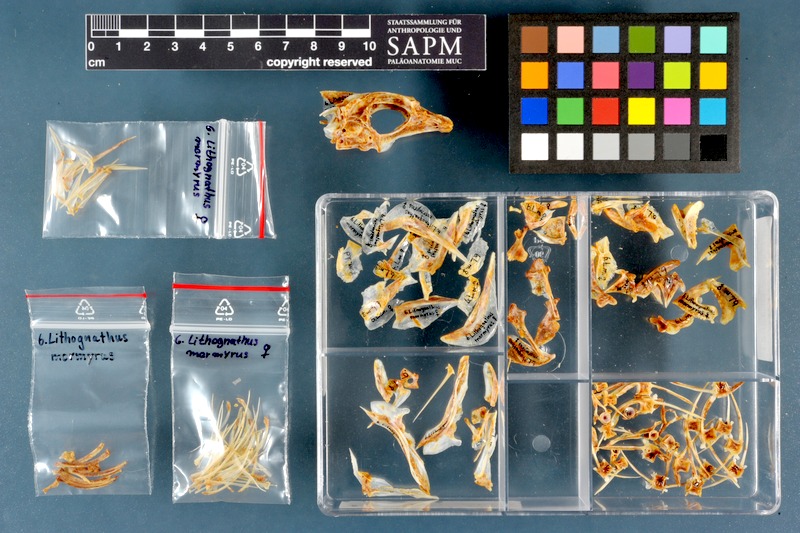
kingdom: Animalia
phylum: Chordata
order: Perciformes
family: Sparidae
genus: Lithognathus
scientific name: Lithognathus mormyrus
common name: Sand steenbras
